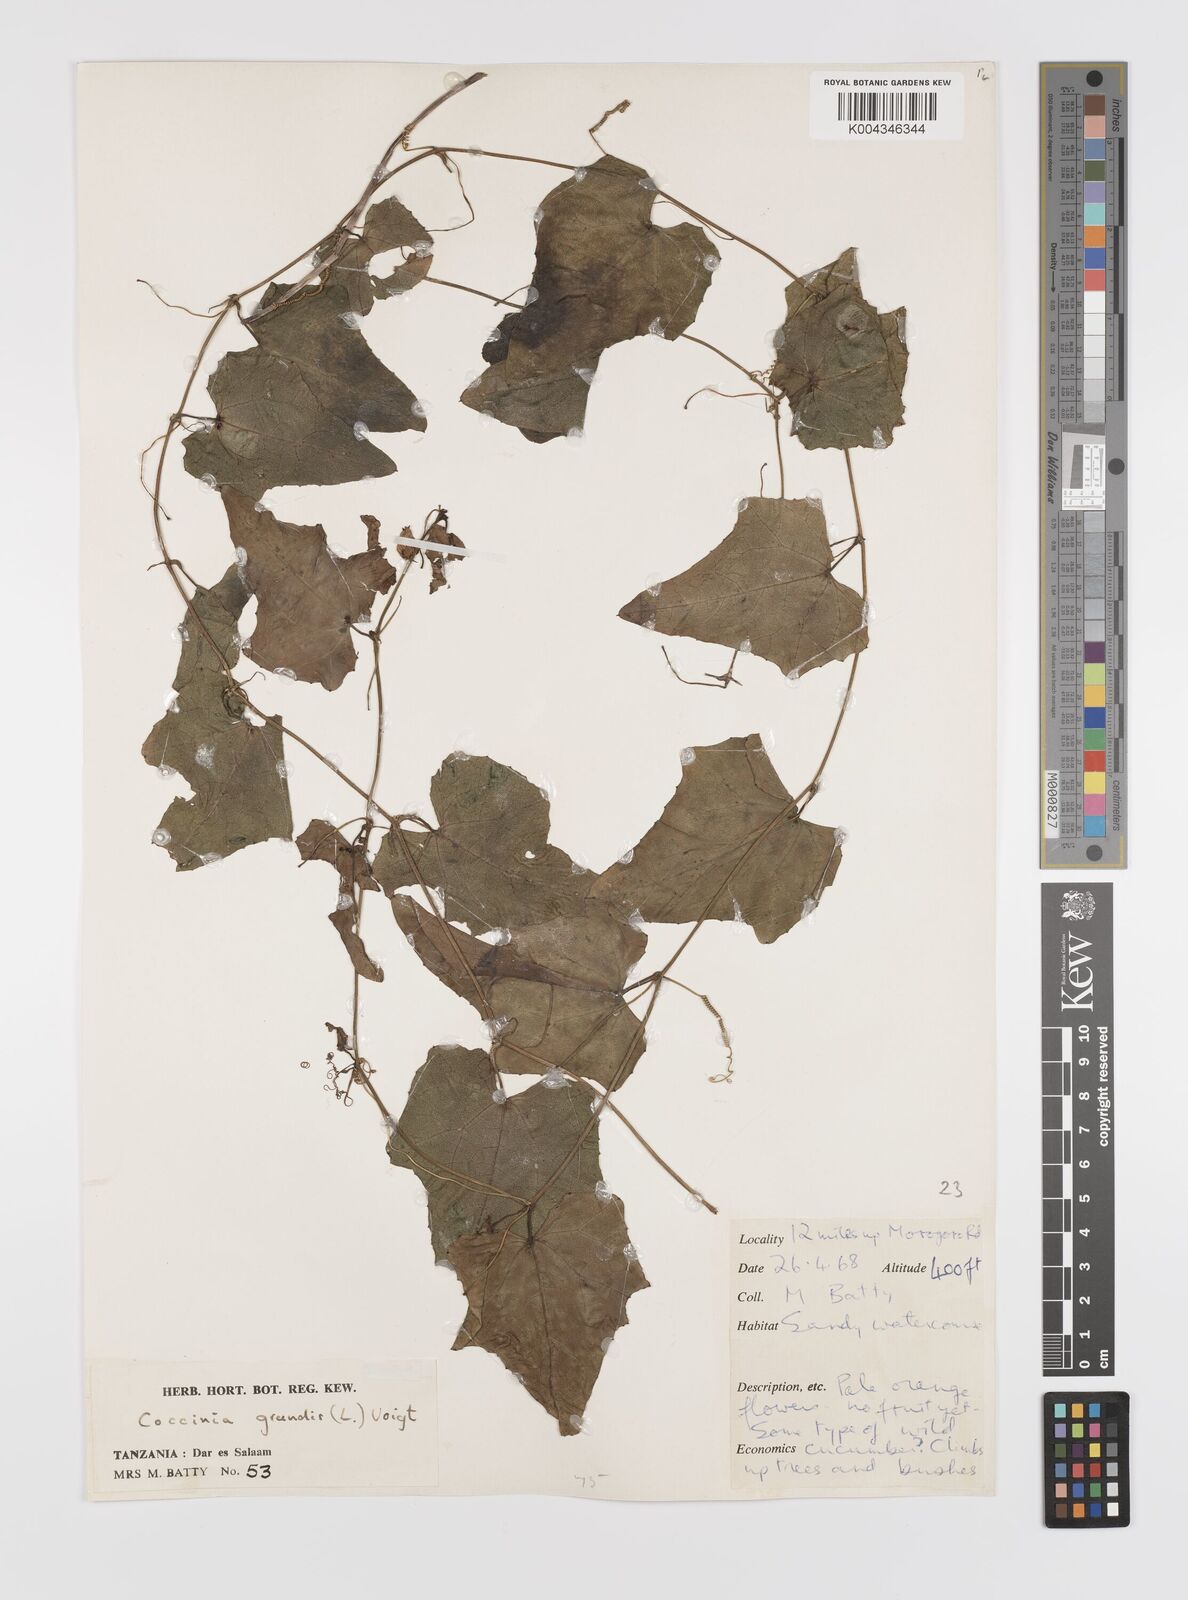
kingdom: Plantae
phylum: Tracheophyta
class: Magnoliopsida
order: Cucurbitales
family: Cucurbitaceae
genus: Coccinia
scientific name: Coccinia grandis
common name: Ivy gourd
